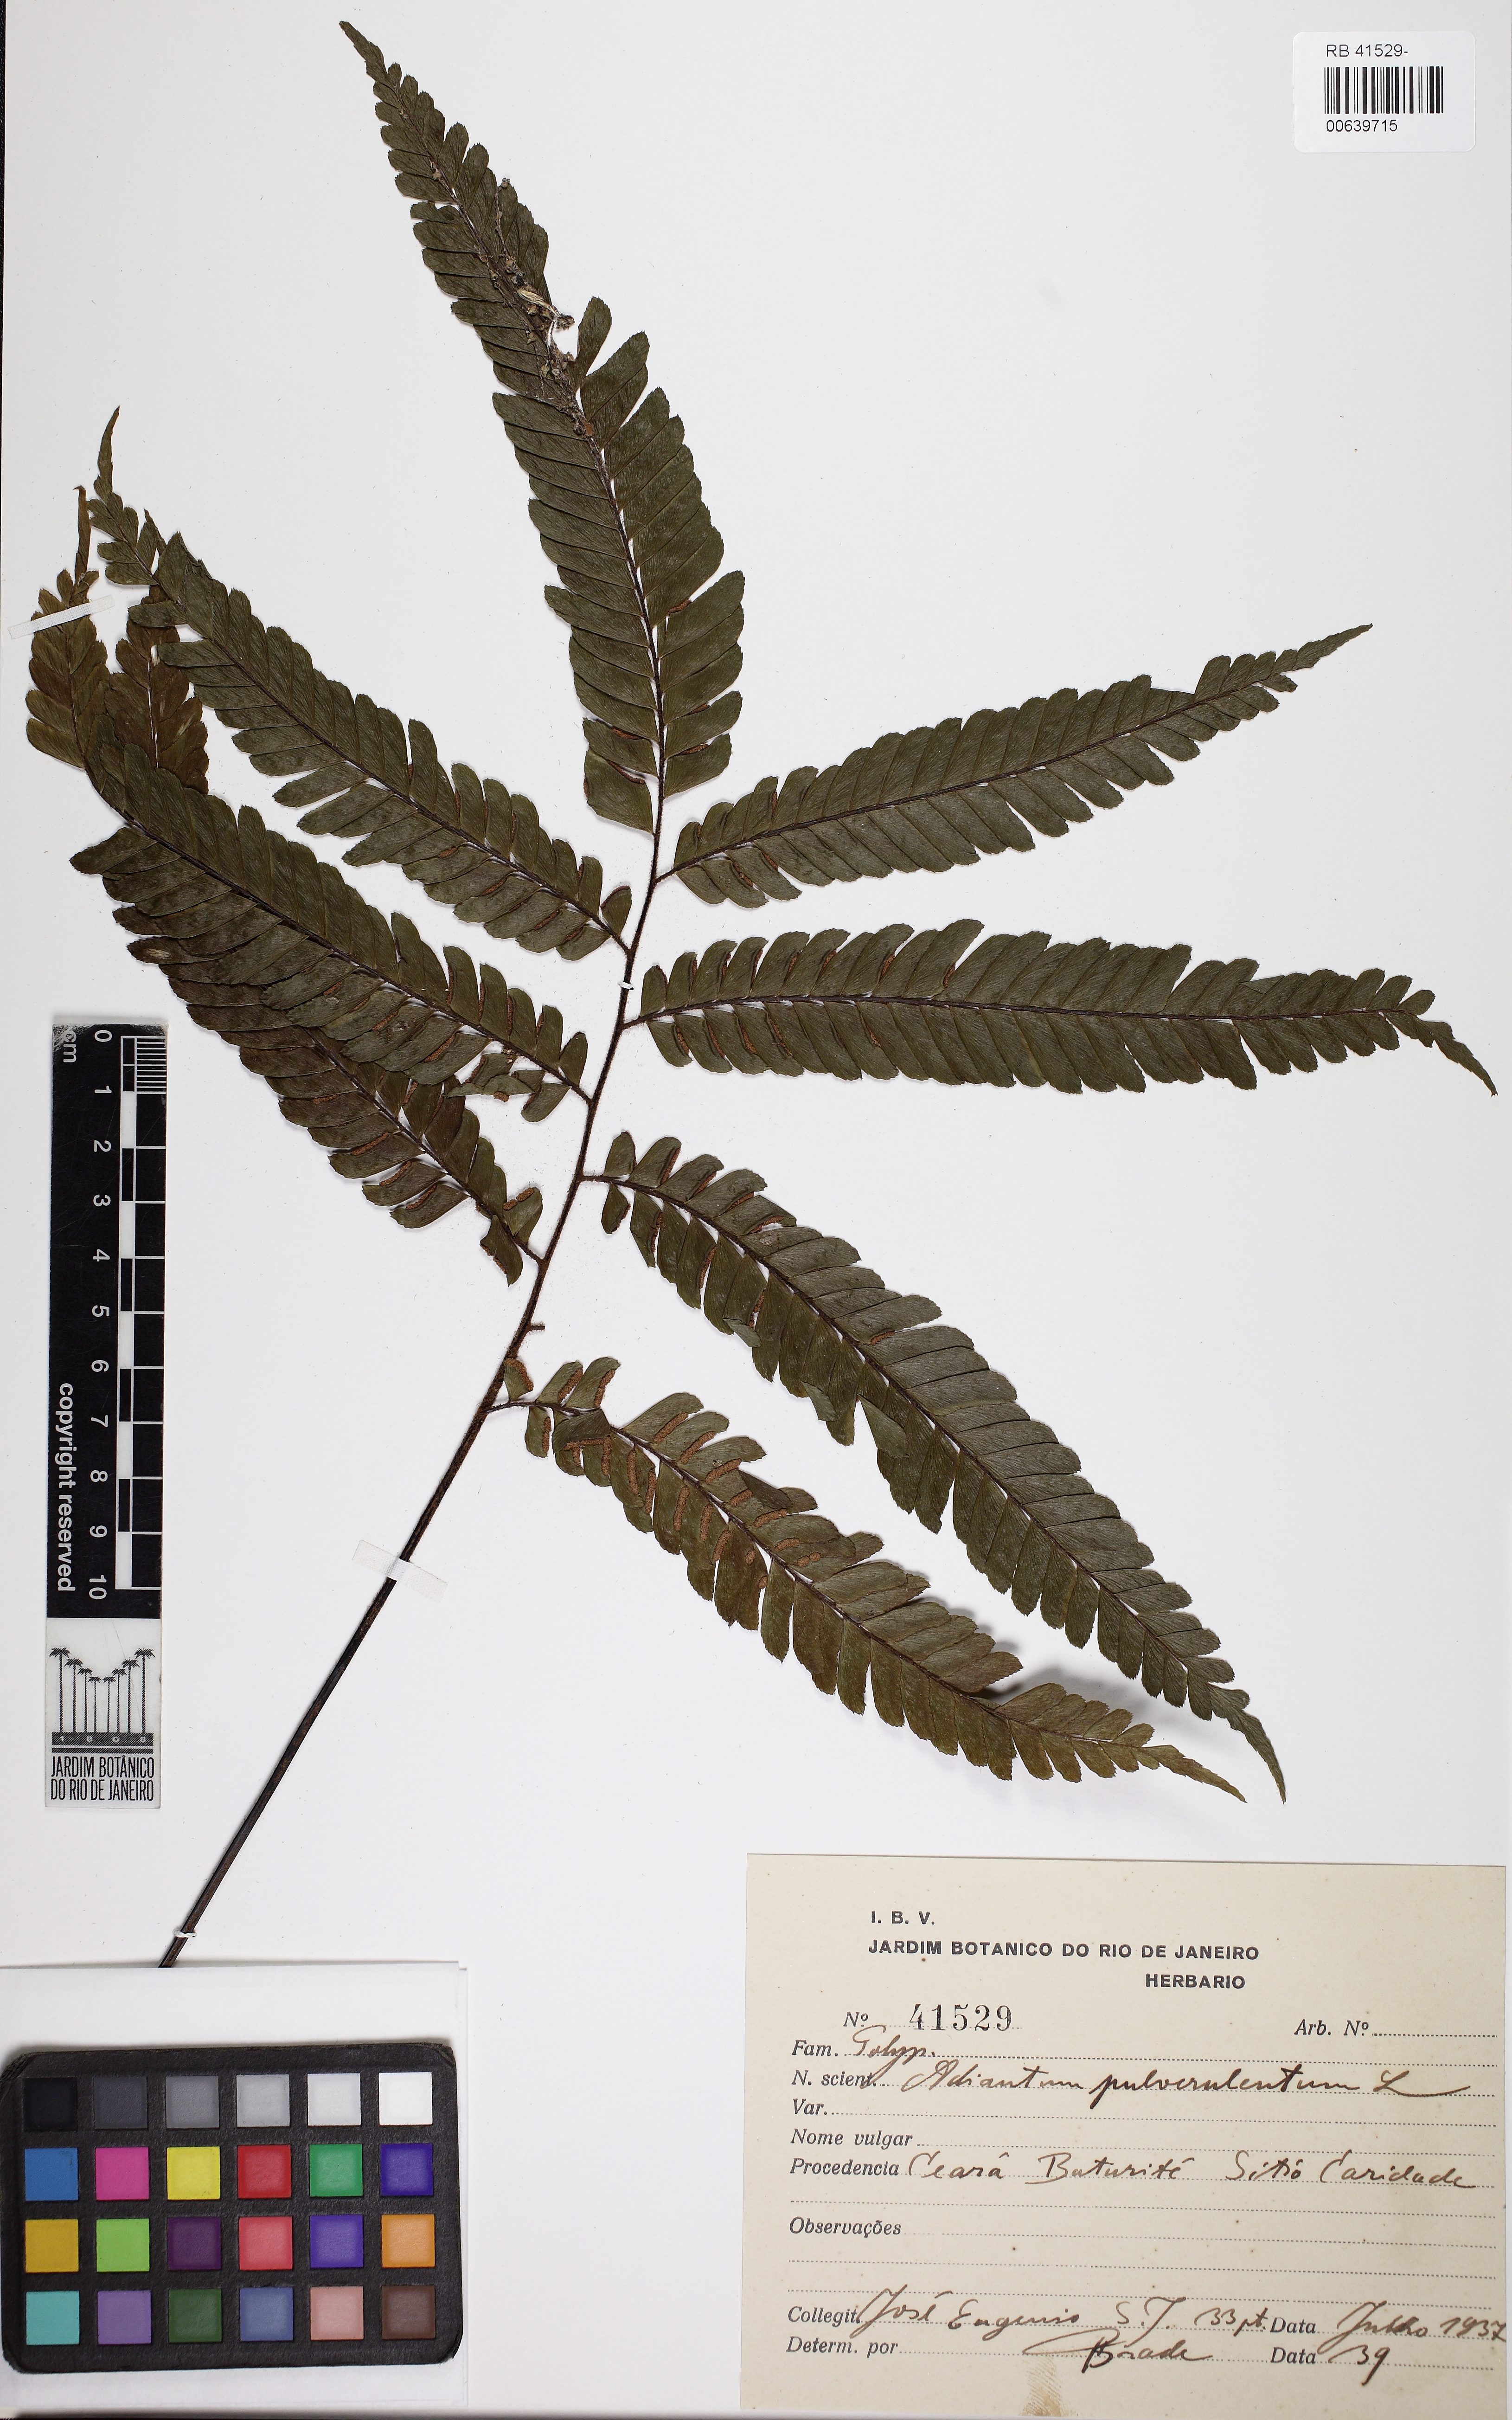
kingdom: Plantae
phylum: Tracheophyta
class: Polypodiopsida
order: Polypodiales
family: Pteridaceae
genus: Adiantum
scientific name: Adiantum pulverulentum
